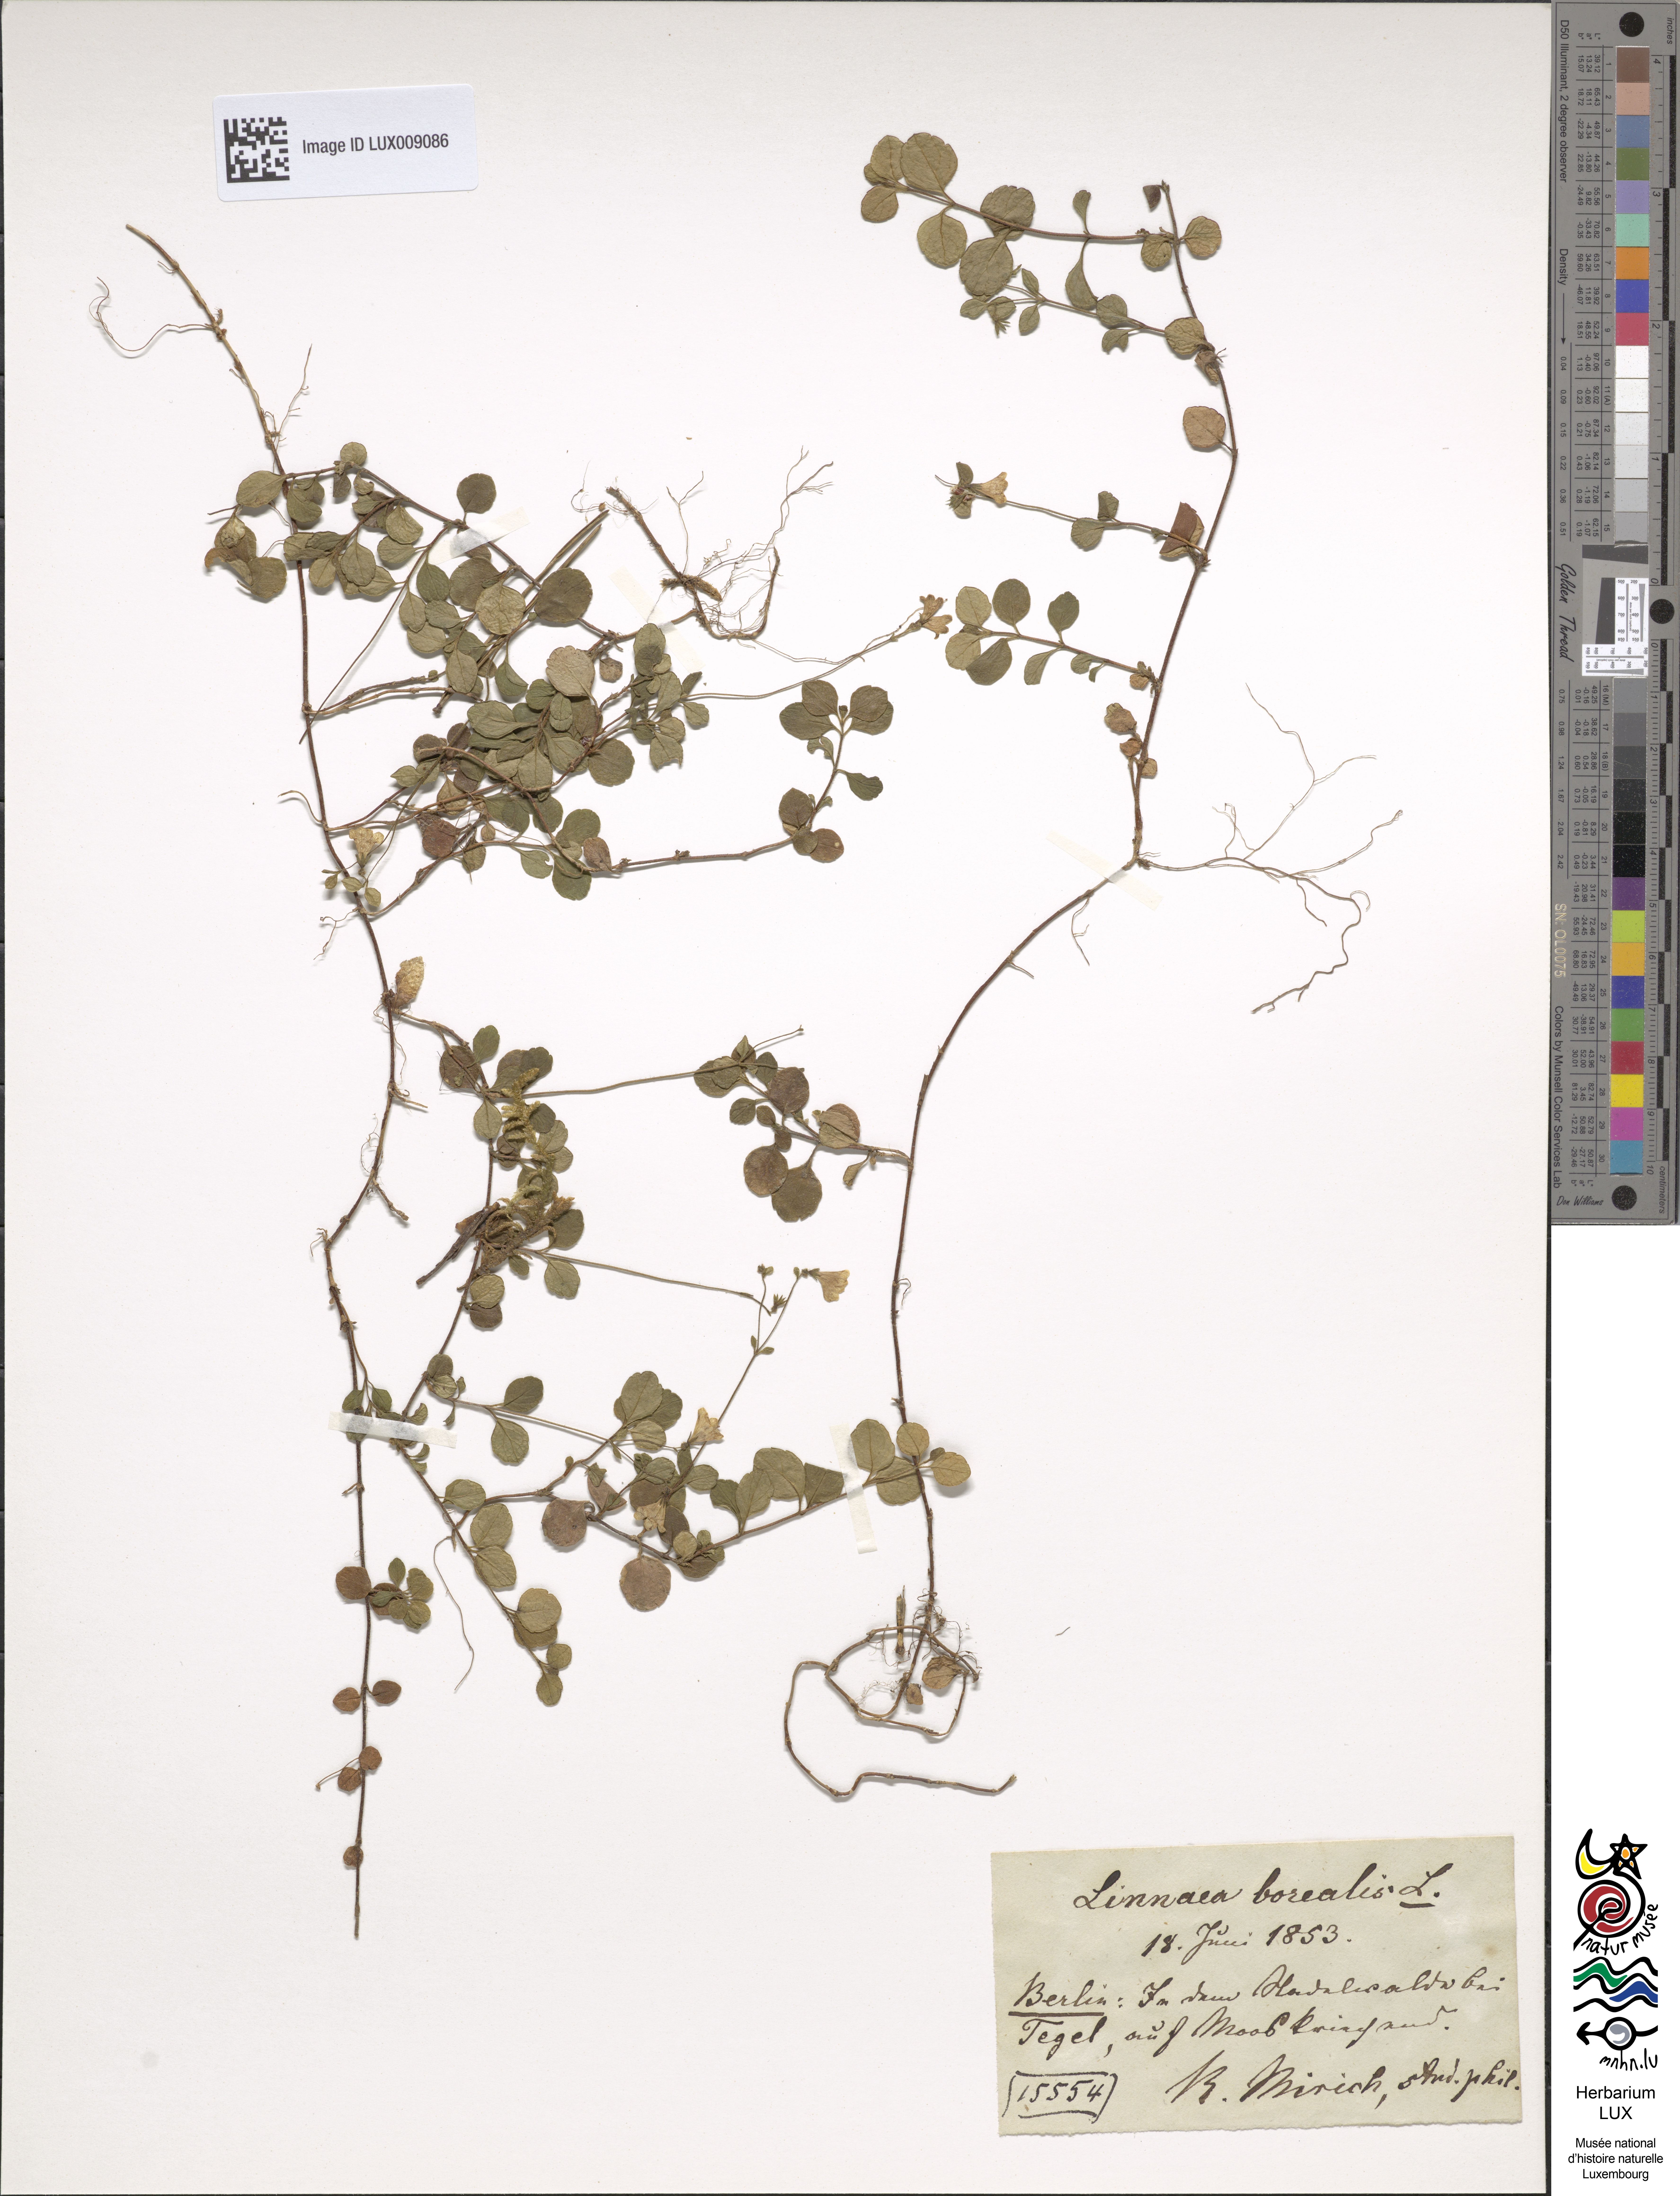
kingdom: Plantae
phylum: Tracheophyta
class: Magnoliopsida
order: Dipsacales
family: Caprifoliaceae
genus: Linnaea
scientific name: Linnaea borealis
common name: Twinflower
